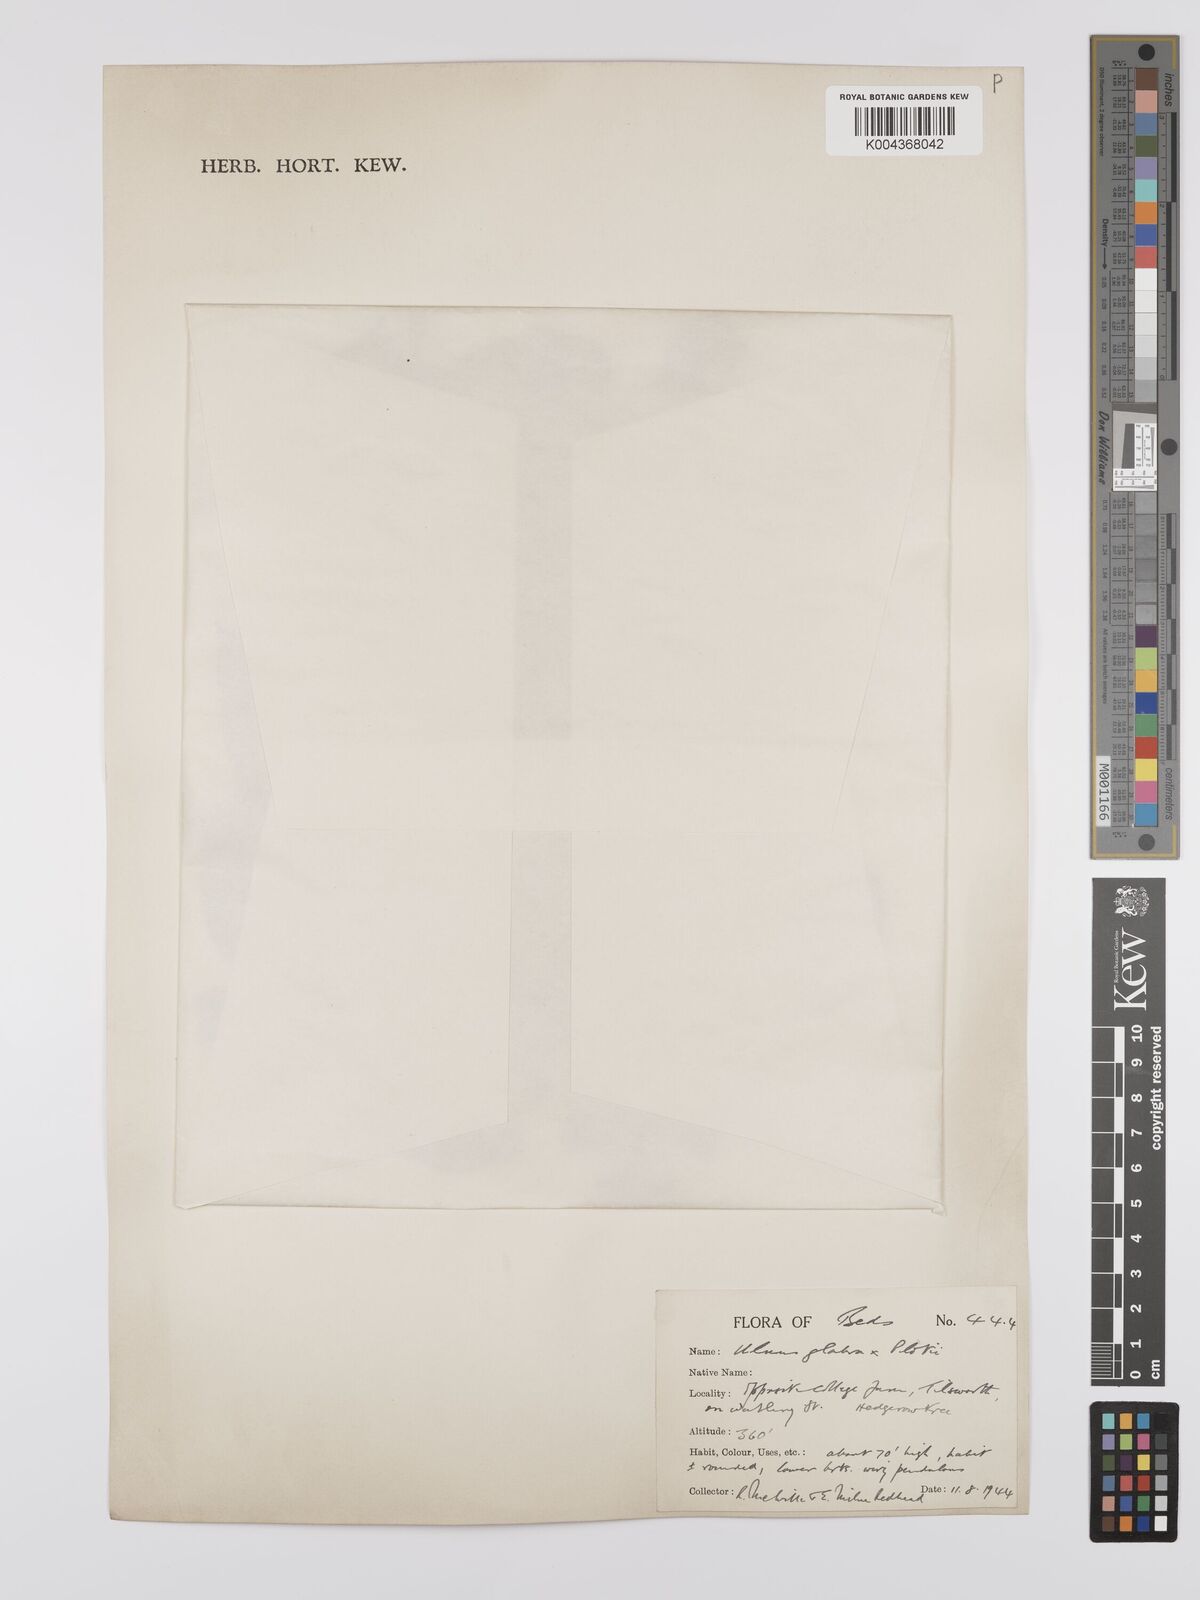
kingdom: Plantae
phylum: Tracheophyta
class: Magnoliopsida
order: Rosales
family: Ulmaceae
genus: Ulmus
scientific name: Ulmus
